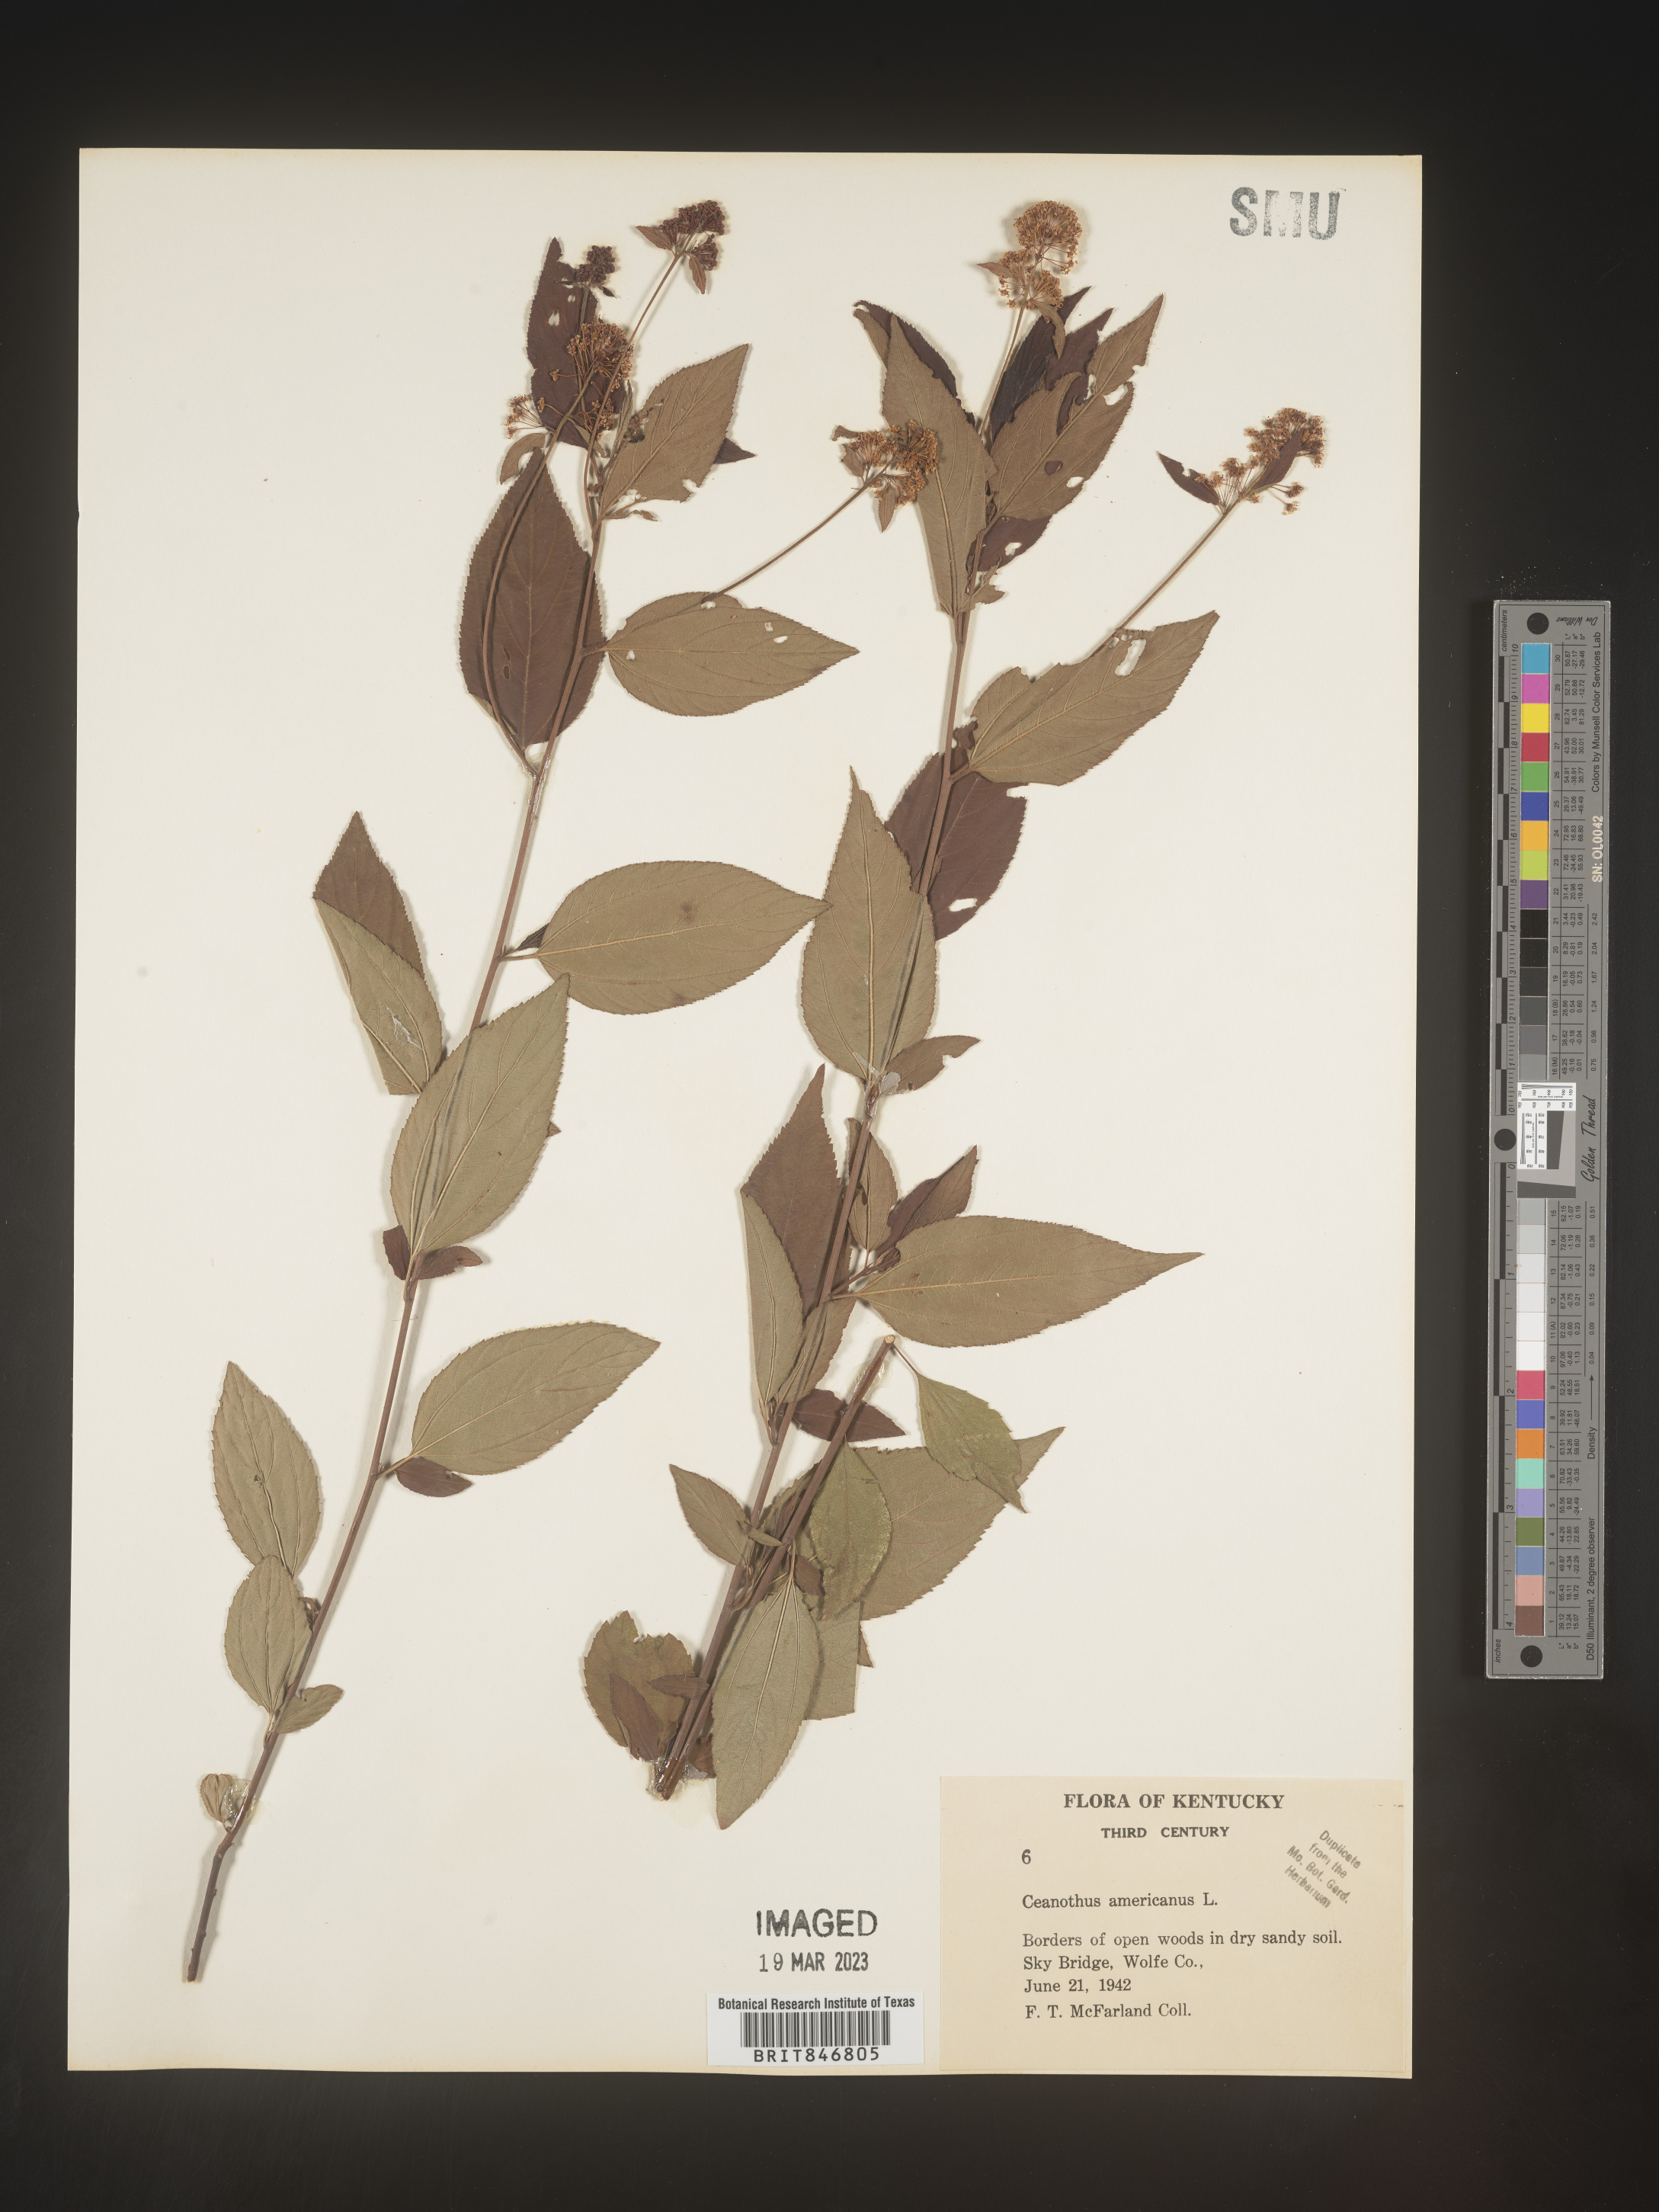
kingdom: Plantae
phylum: Tracheophyta
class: Magnoliopsida
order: Rosales
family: Rhamnaceae
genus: Ceanothus
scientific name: Ceanothus americanus
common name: Redroot
